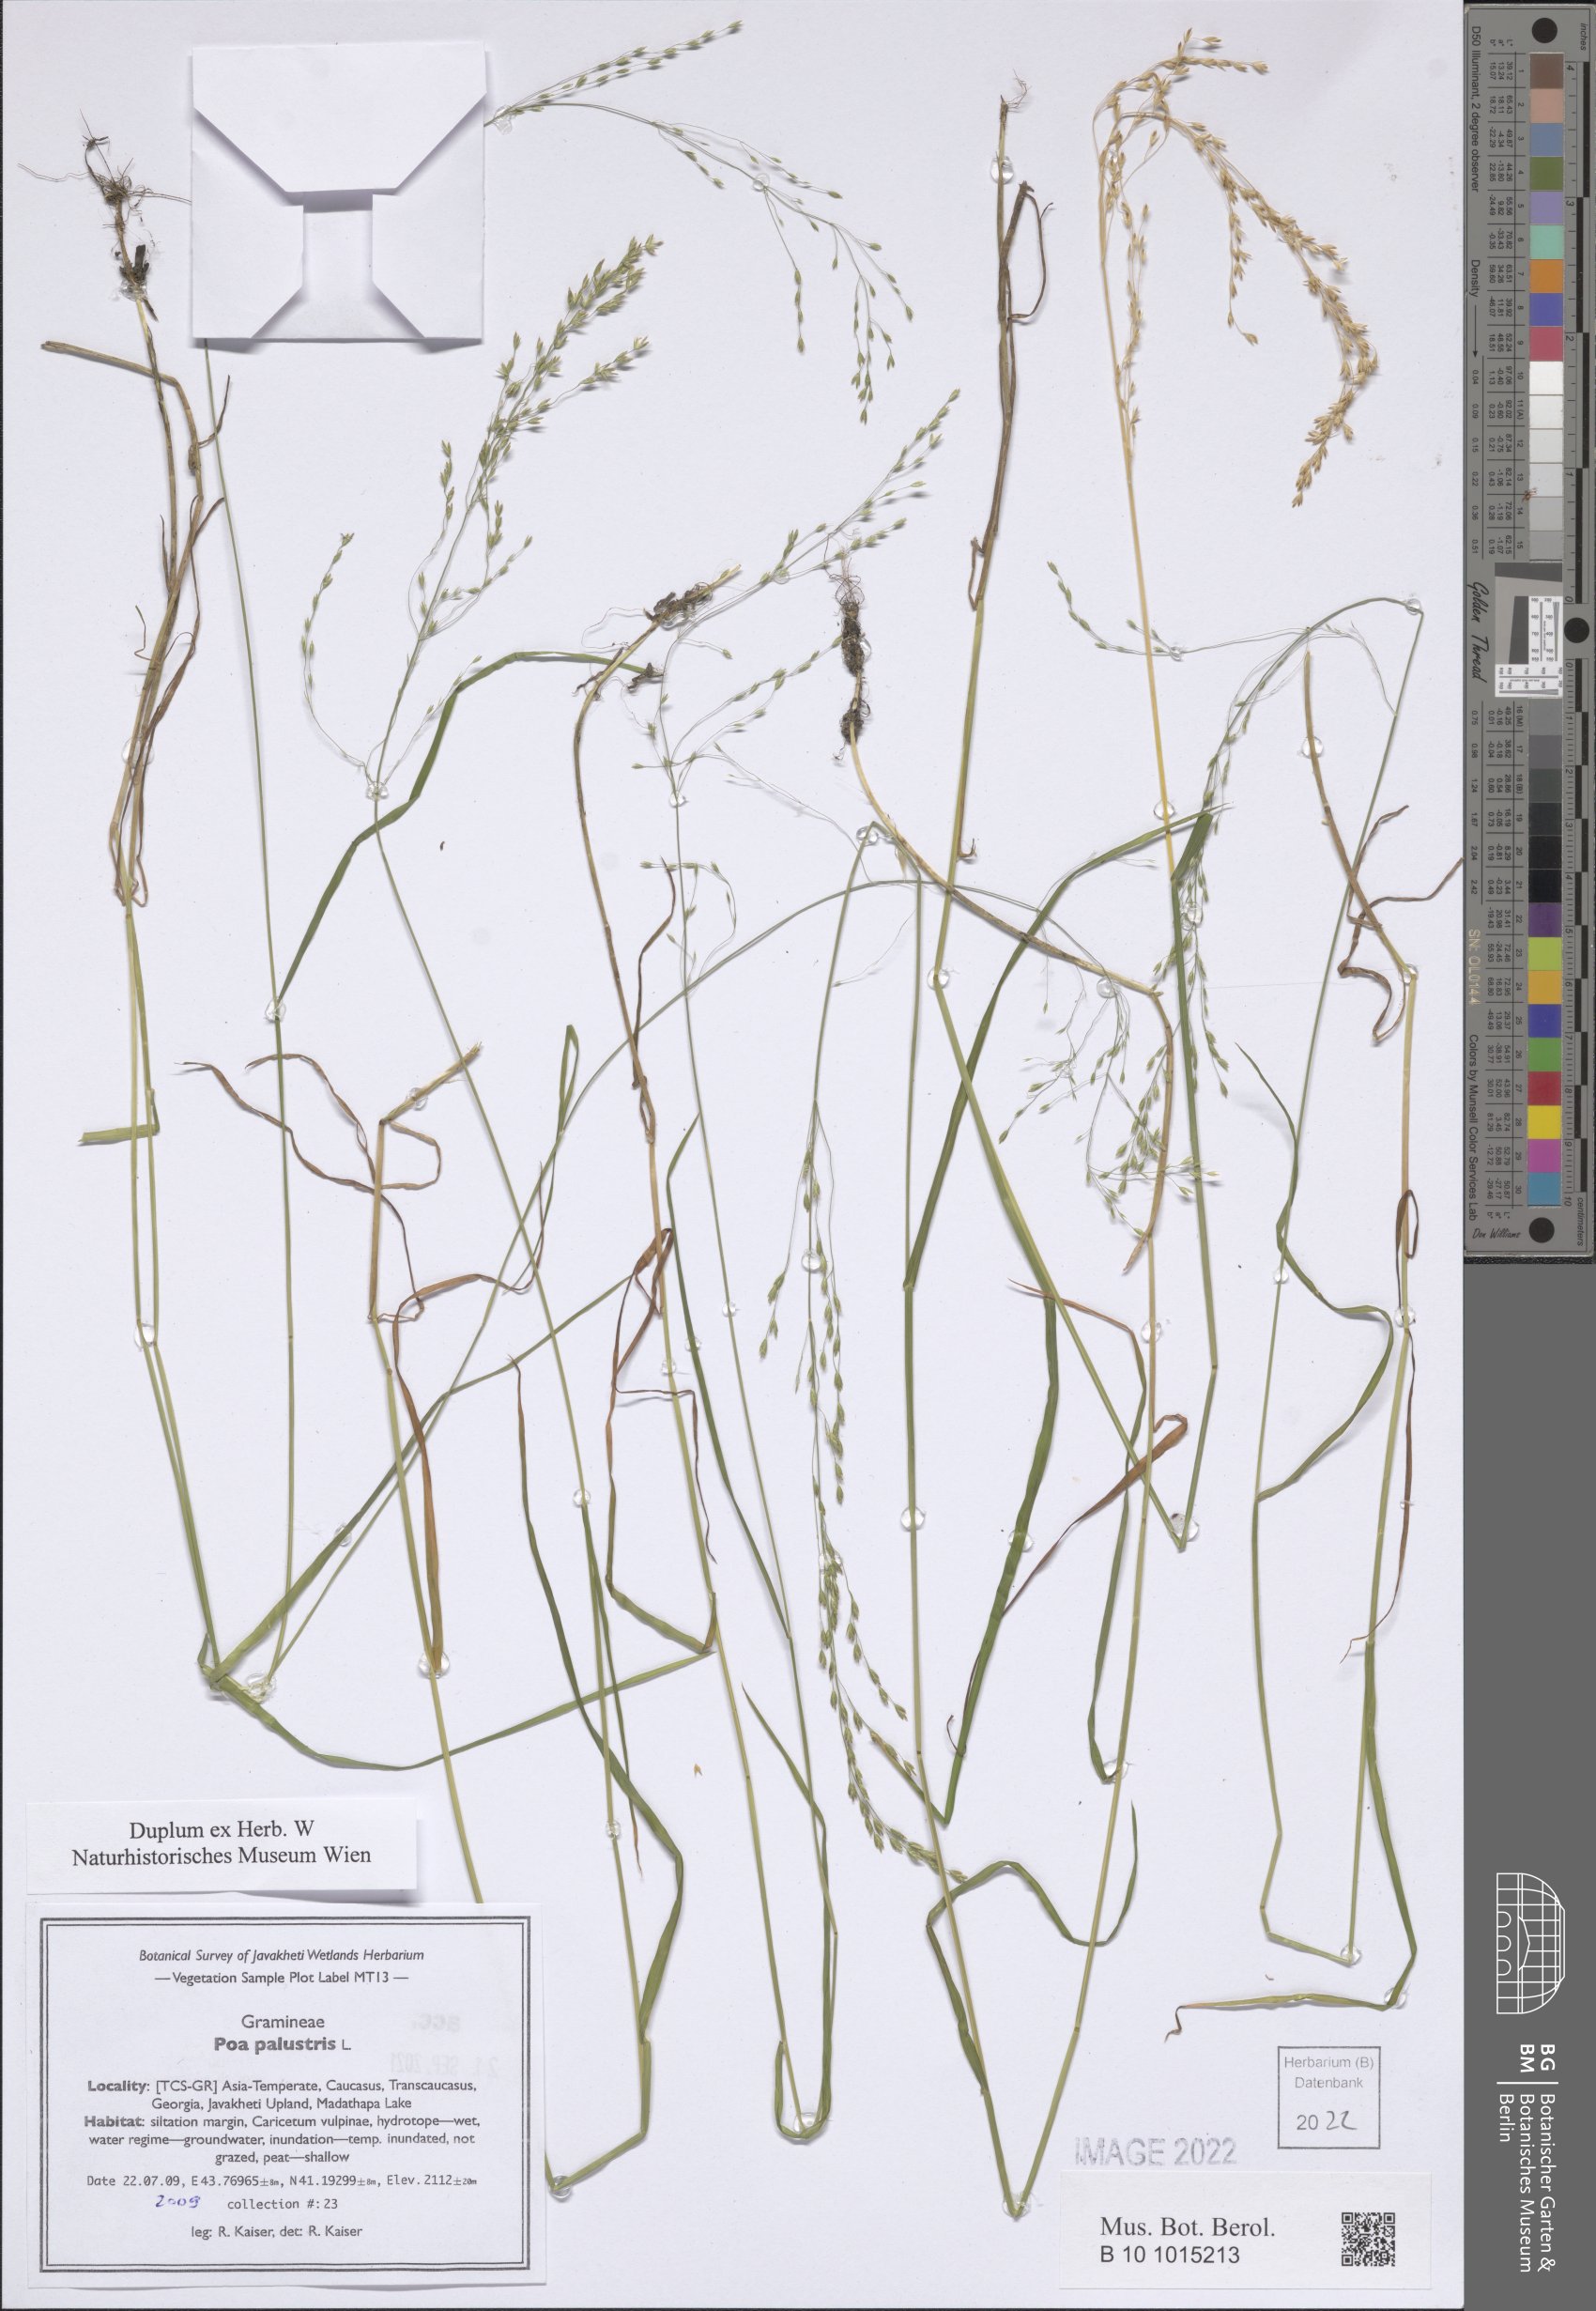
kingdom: Plantae
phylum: Tracheophyta
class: Liliopsida
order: Poales
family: Poaceae
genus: Poa
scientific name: Poa palustris
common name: Swamp meadow-grass
